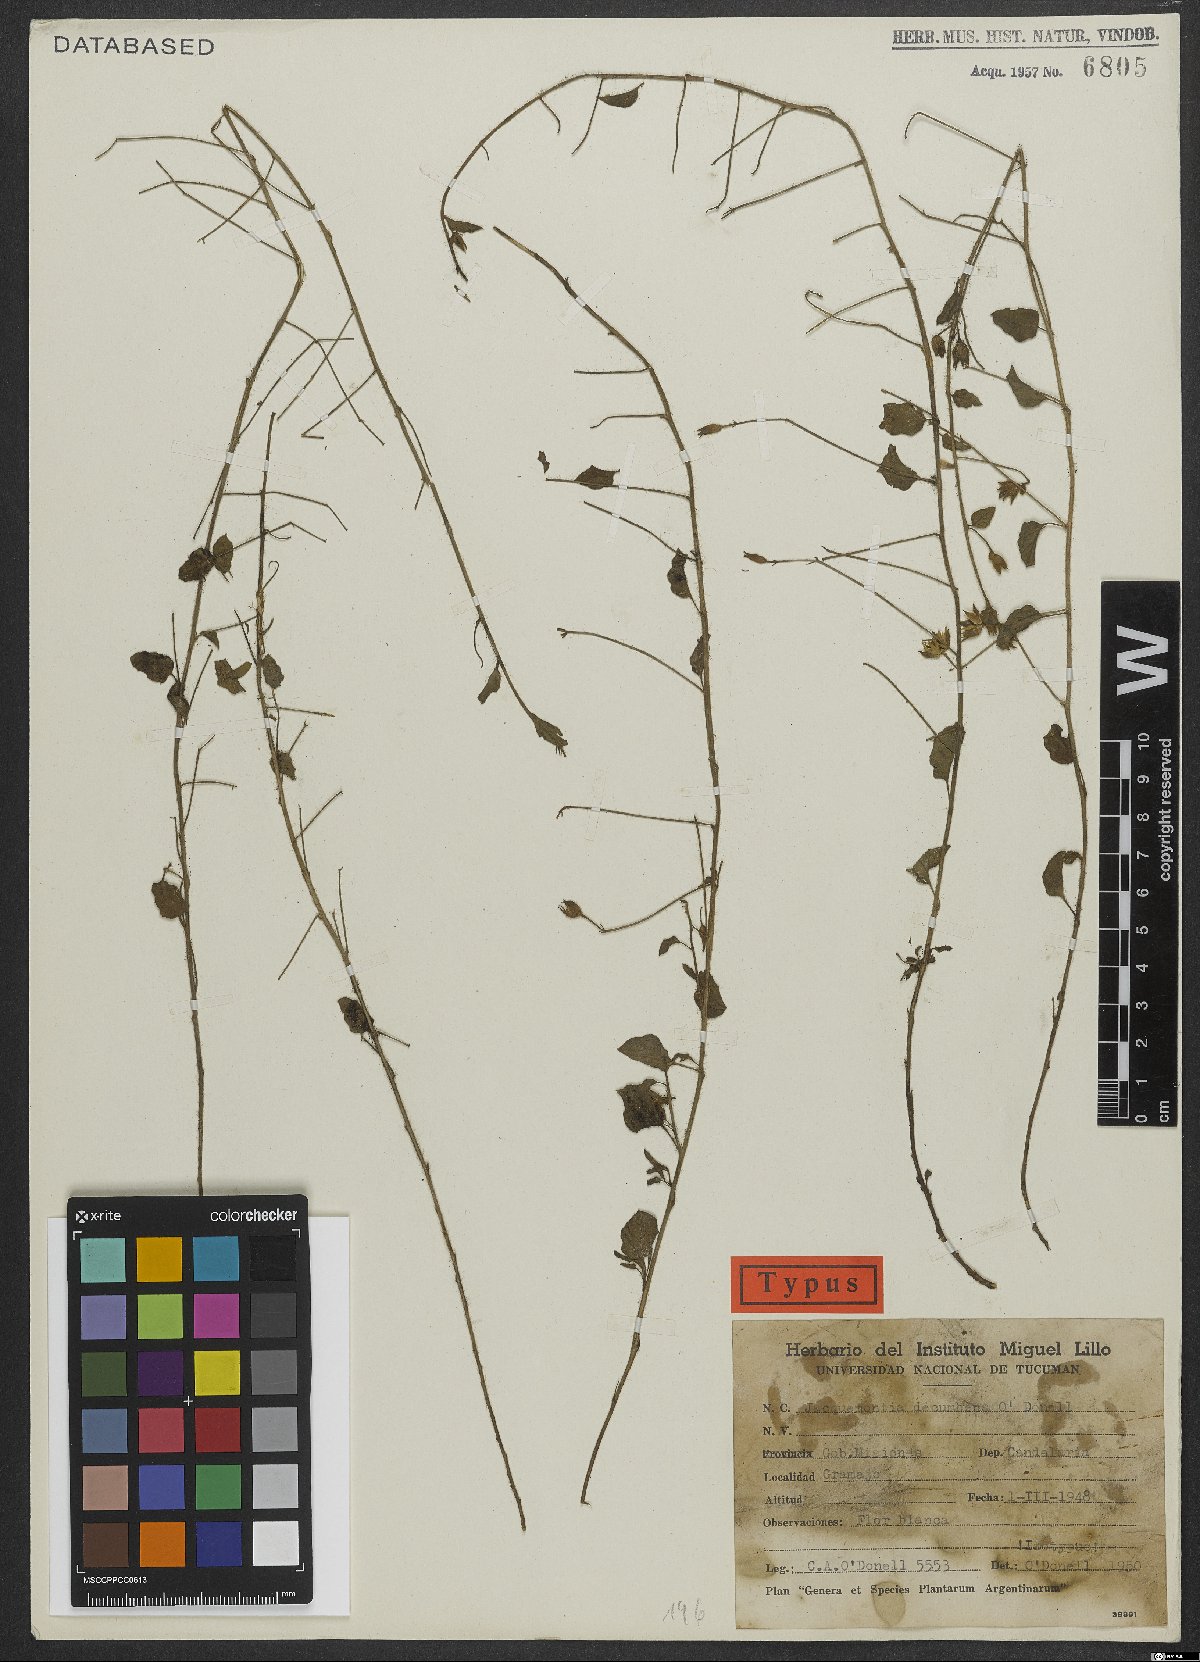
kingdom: Plantae
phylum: Tracheophyta
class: Magnoliopsida
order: Solanales
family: Convolvulaceae
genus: Jacquemontia
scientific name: Jacquemontia evolvuloides
